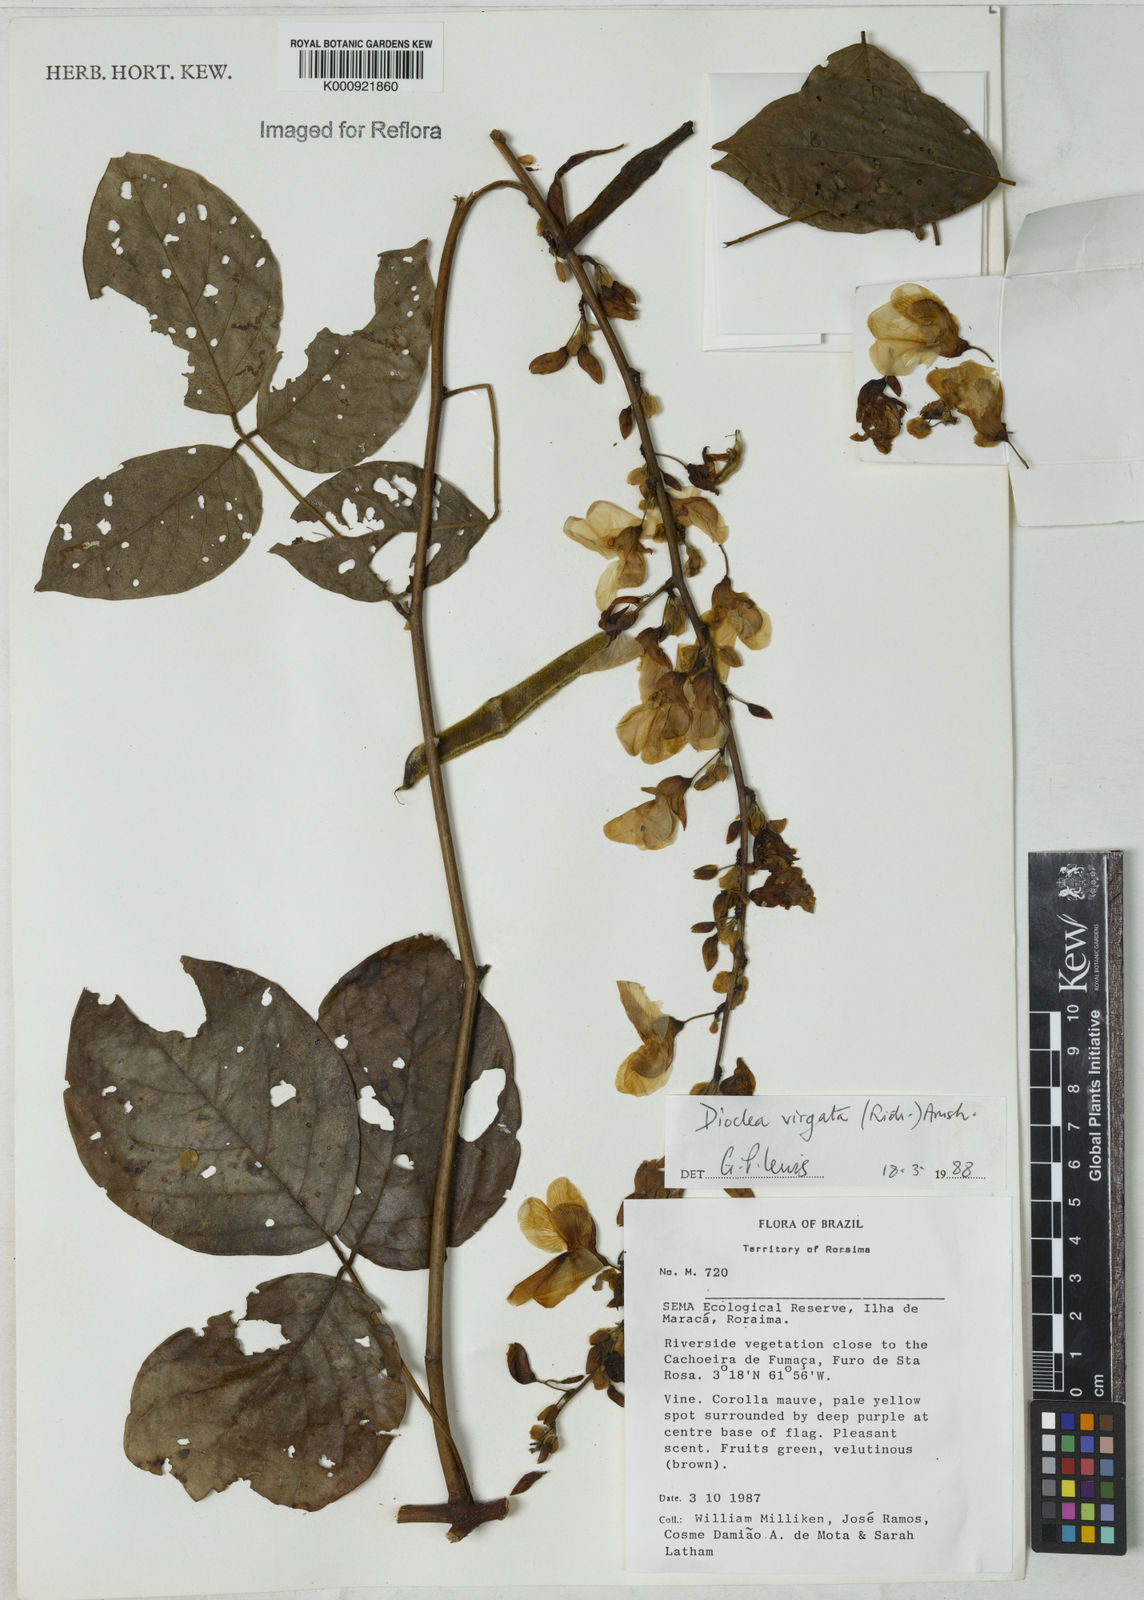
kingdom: Plantae
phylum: Tracheophyta
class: Magnoliopsida
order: Fabales
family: Fabaceae
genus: Dioclea
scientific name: Dioclea virgata
